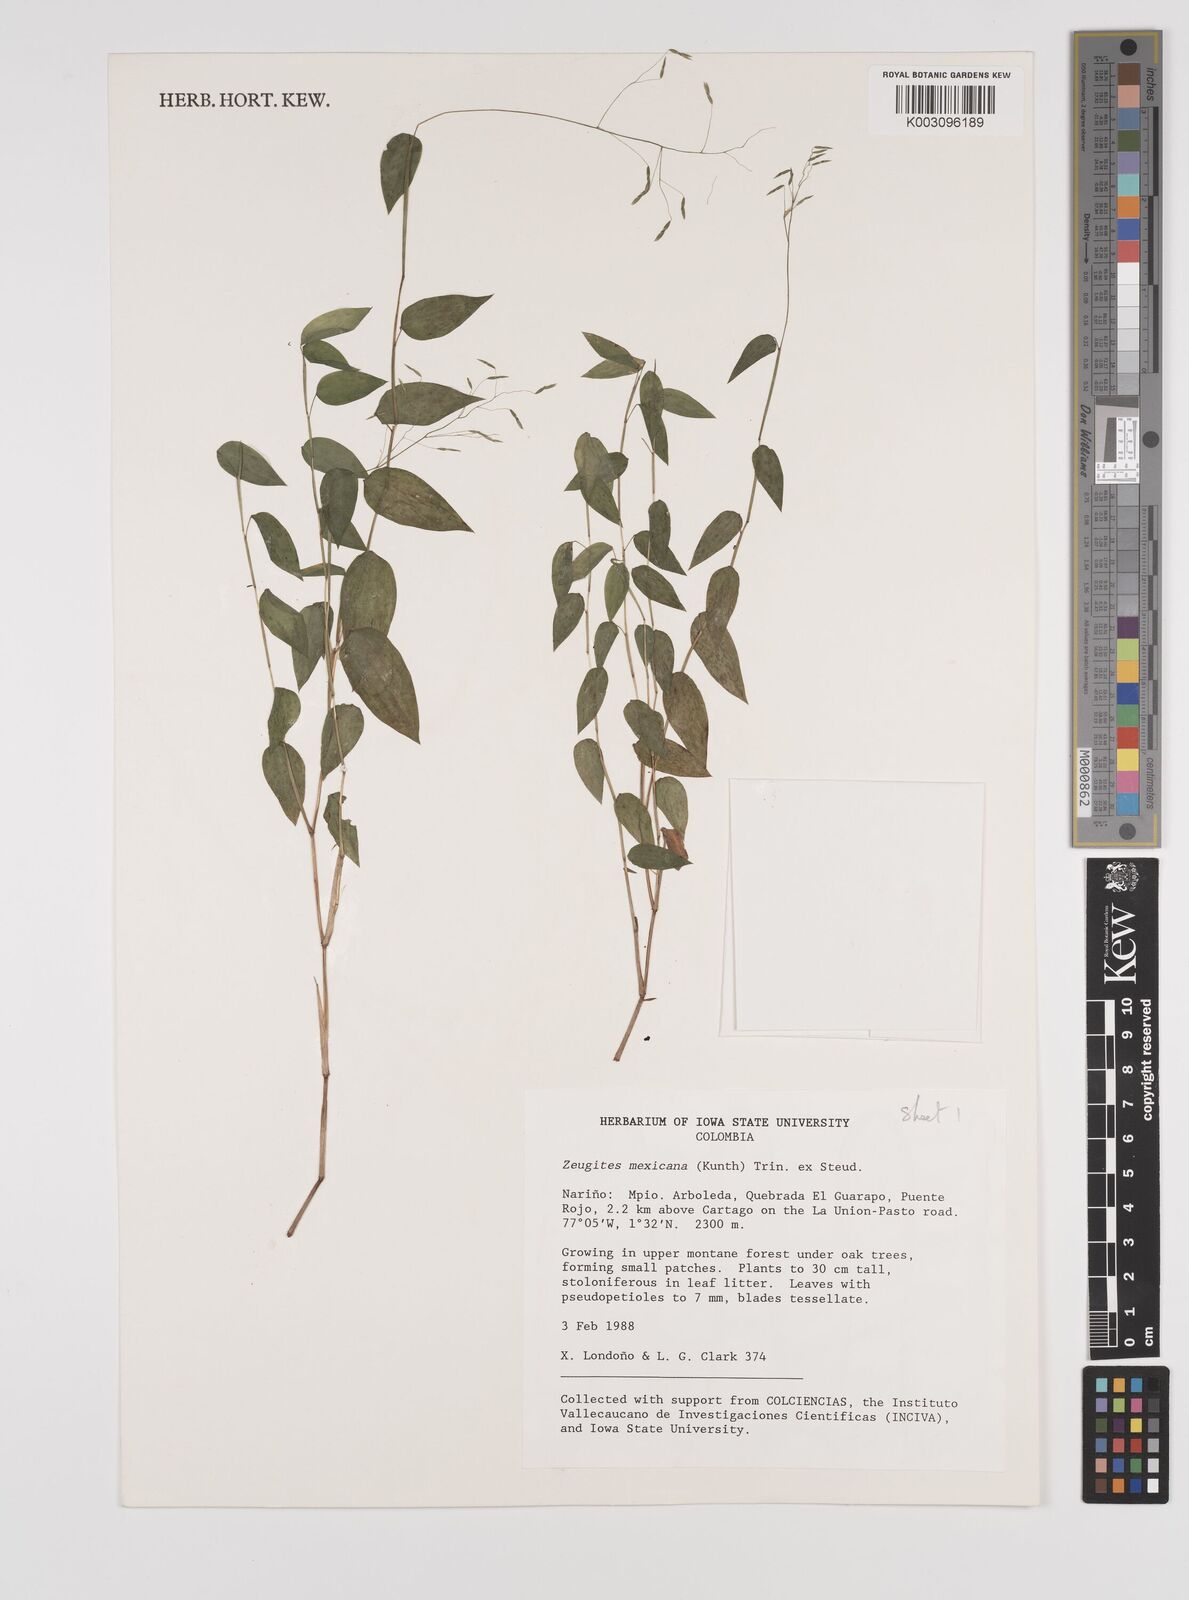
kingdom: Plantae
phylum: Tracheophyta
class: Liliopsida
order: Poales
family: Poaceae
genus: Zeugites
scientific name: Zeugites americanus
